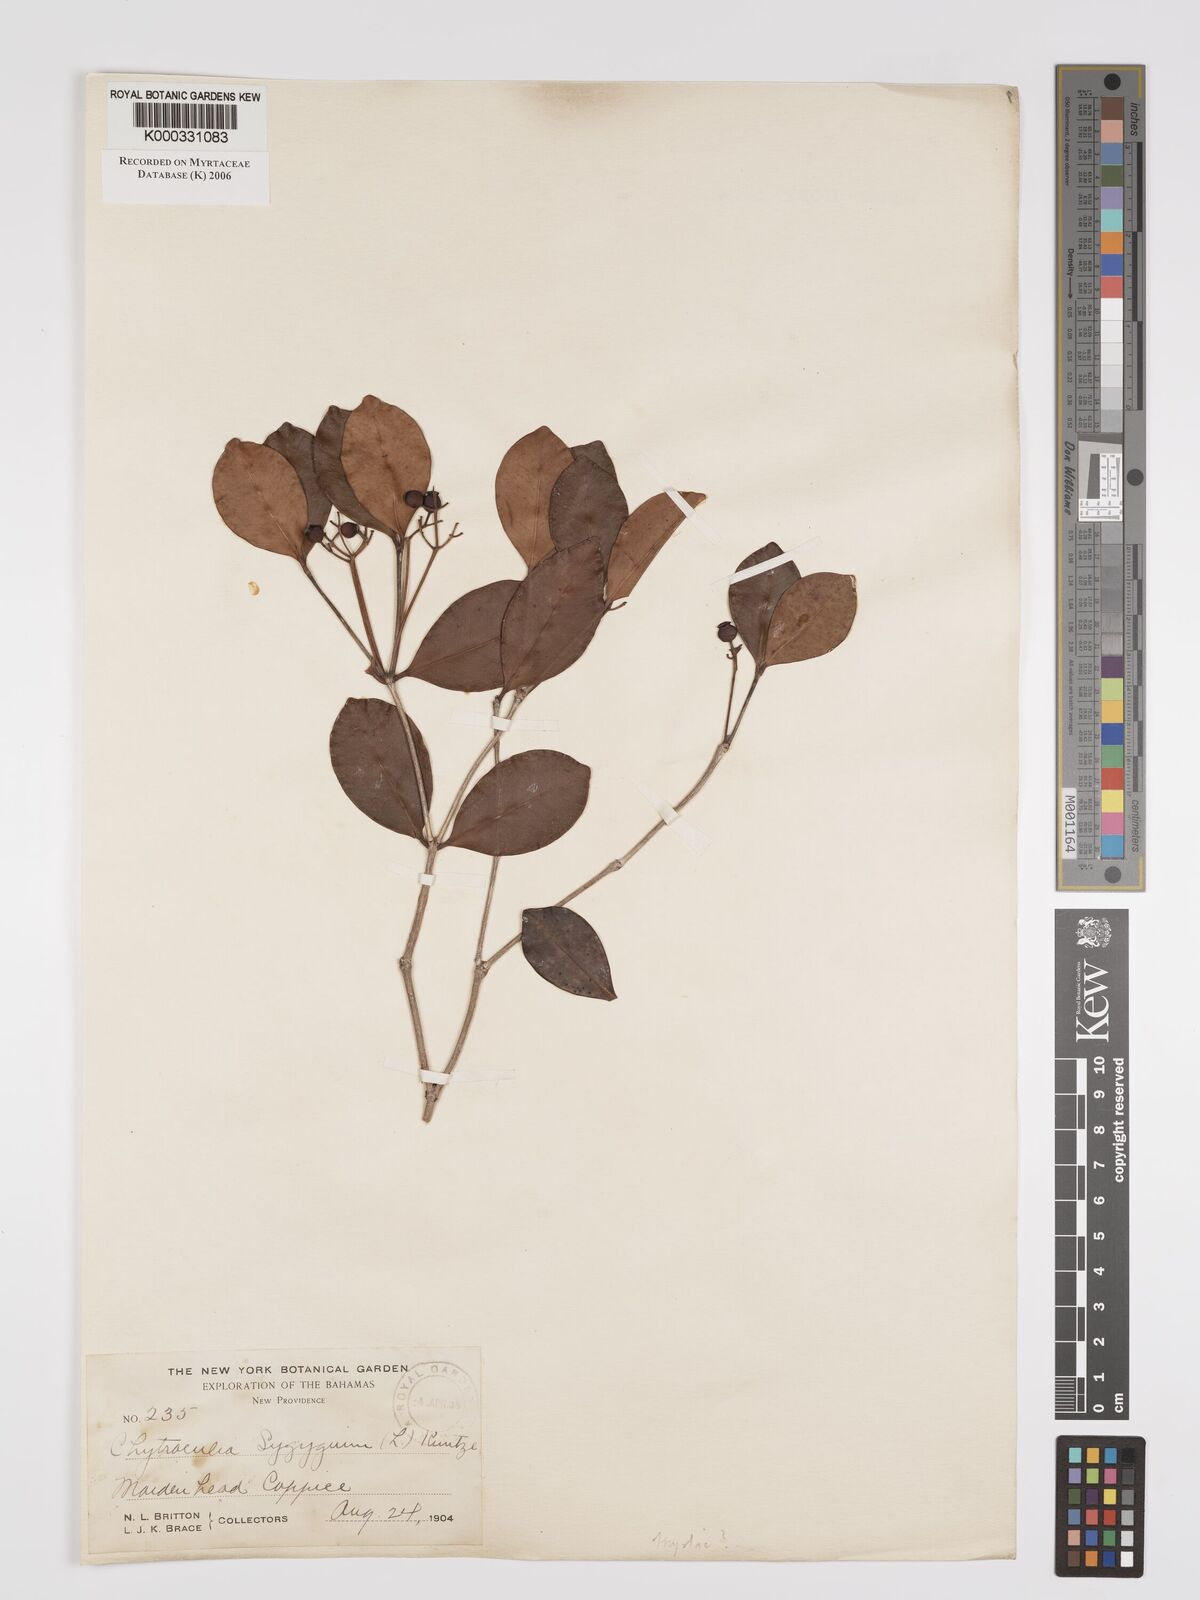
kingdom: Plantae
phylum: Tracheophyta
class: Magnoliopsida
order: Myrtales
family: Myrtaceae
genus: Myrcia
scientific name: Myrcia chytraculia
